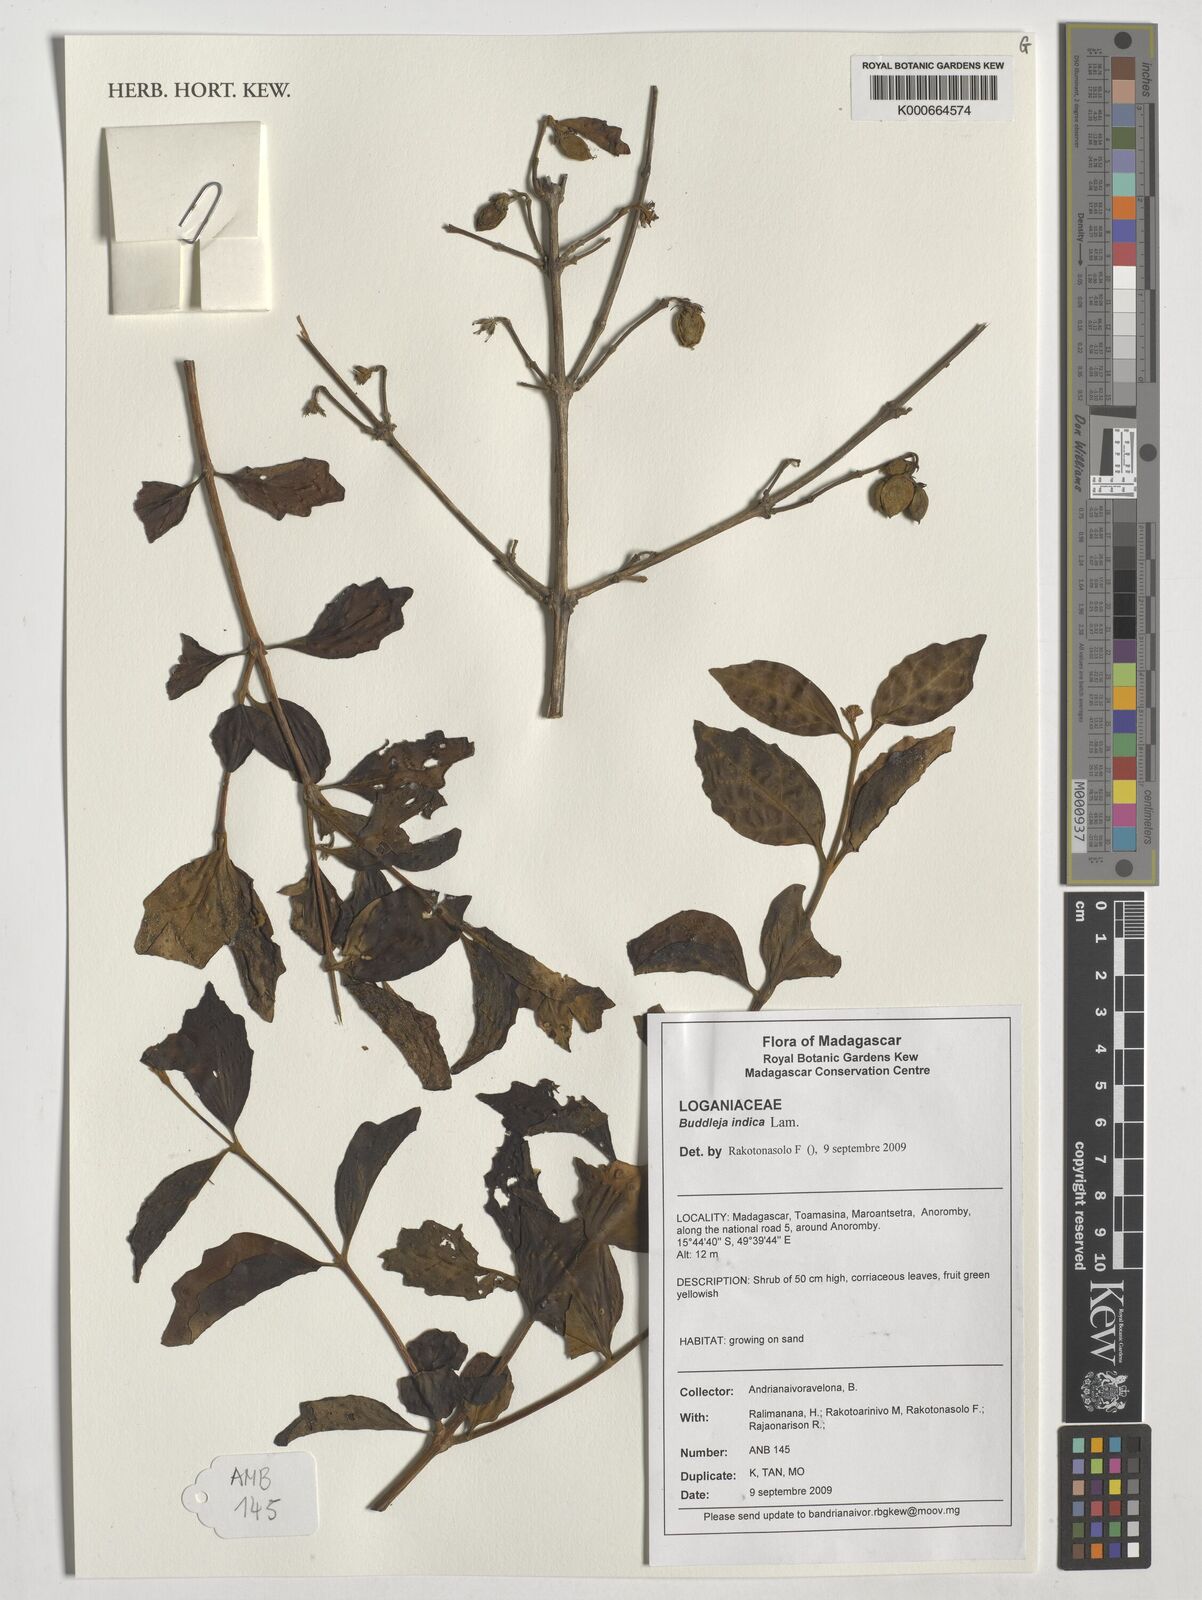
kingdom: Plantae
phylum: Tracheophyta
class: Magnoliopsida
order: Lamiales
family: Scrophulariaceae
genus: Buddleja
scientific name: Buddleja indica
